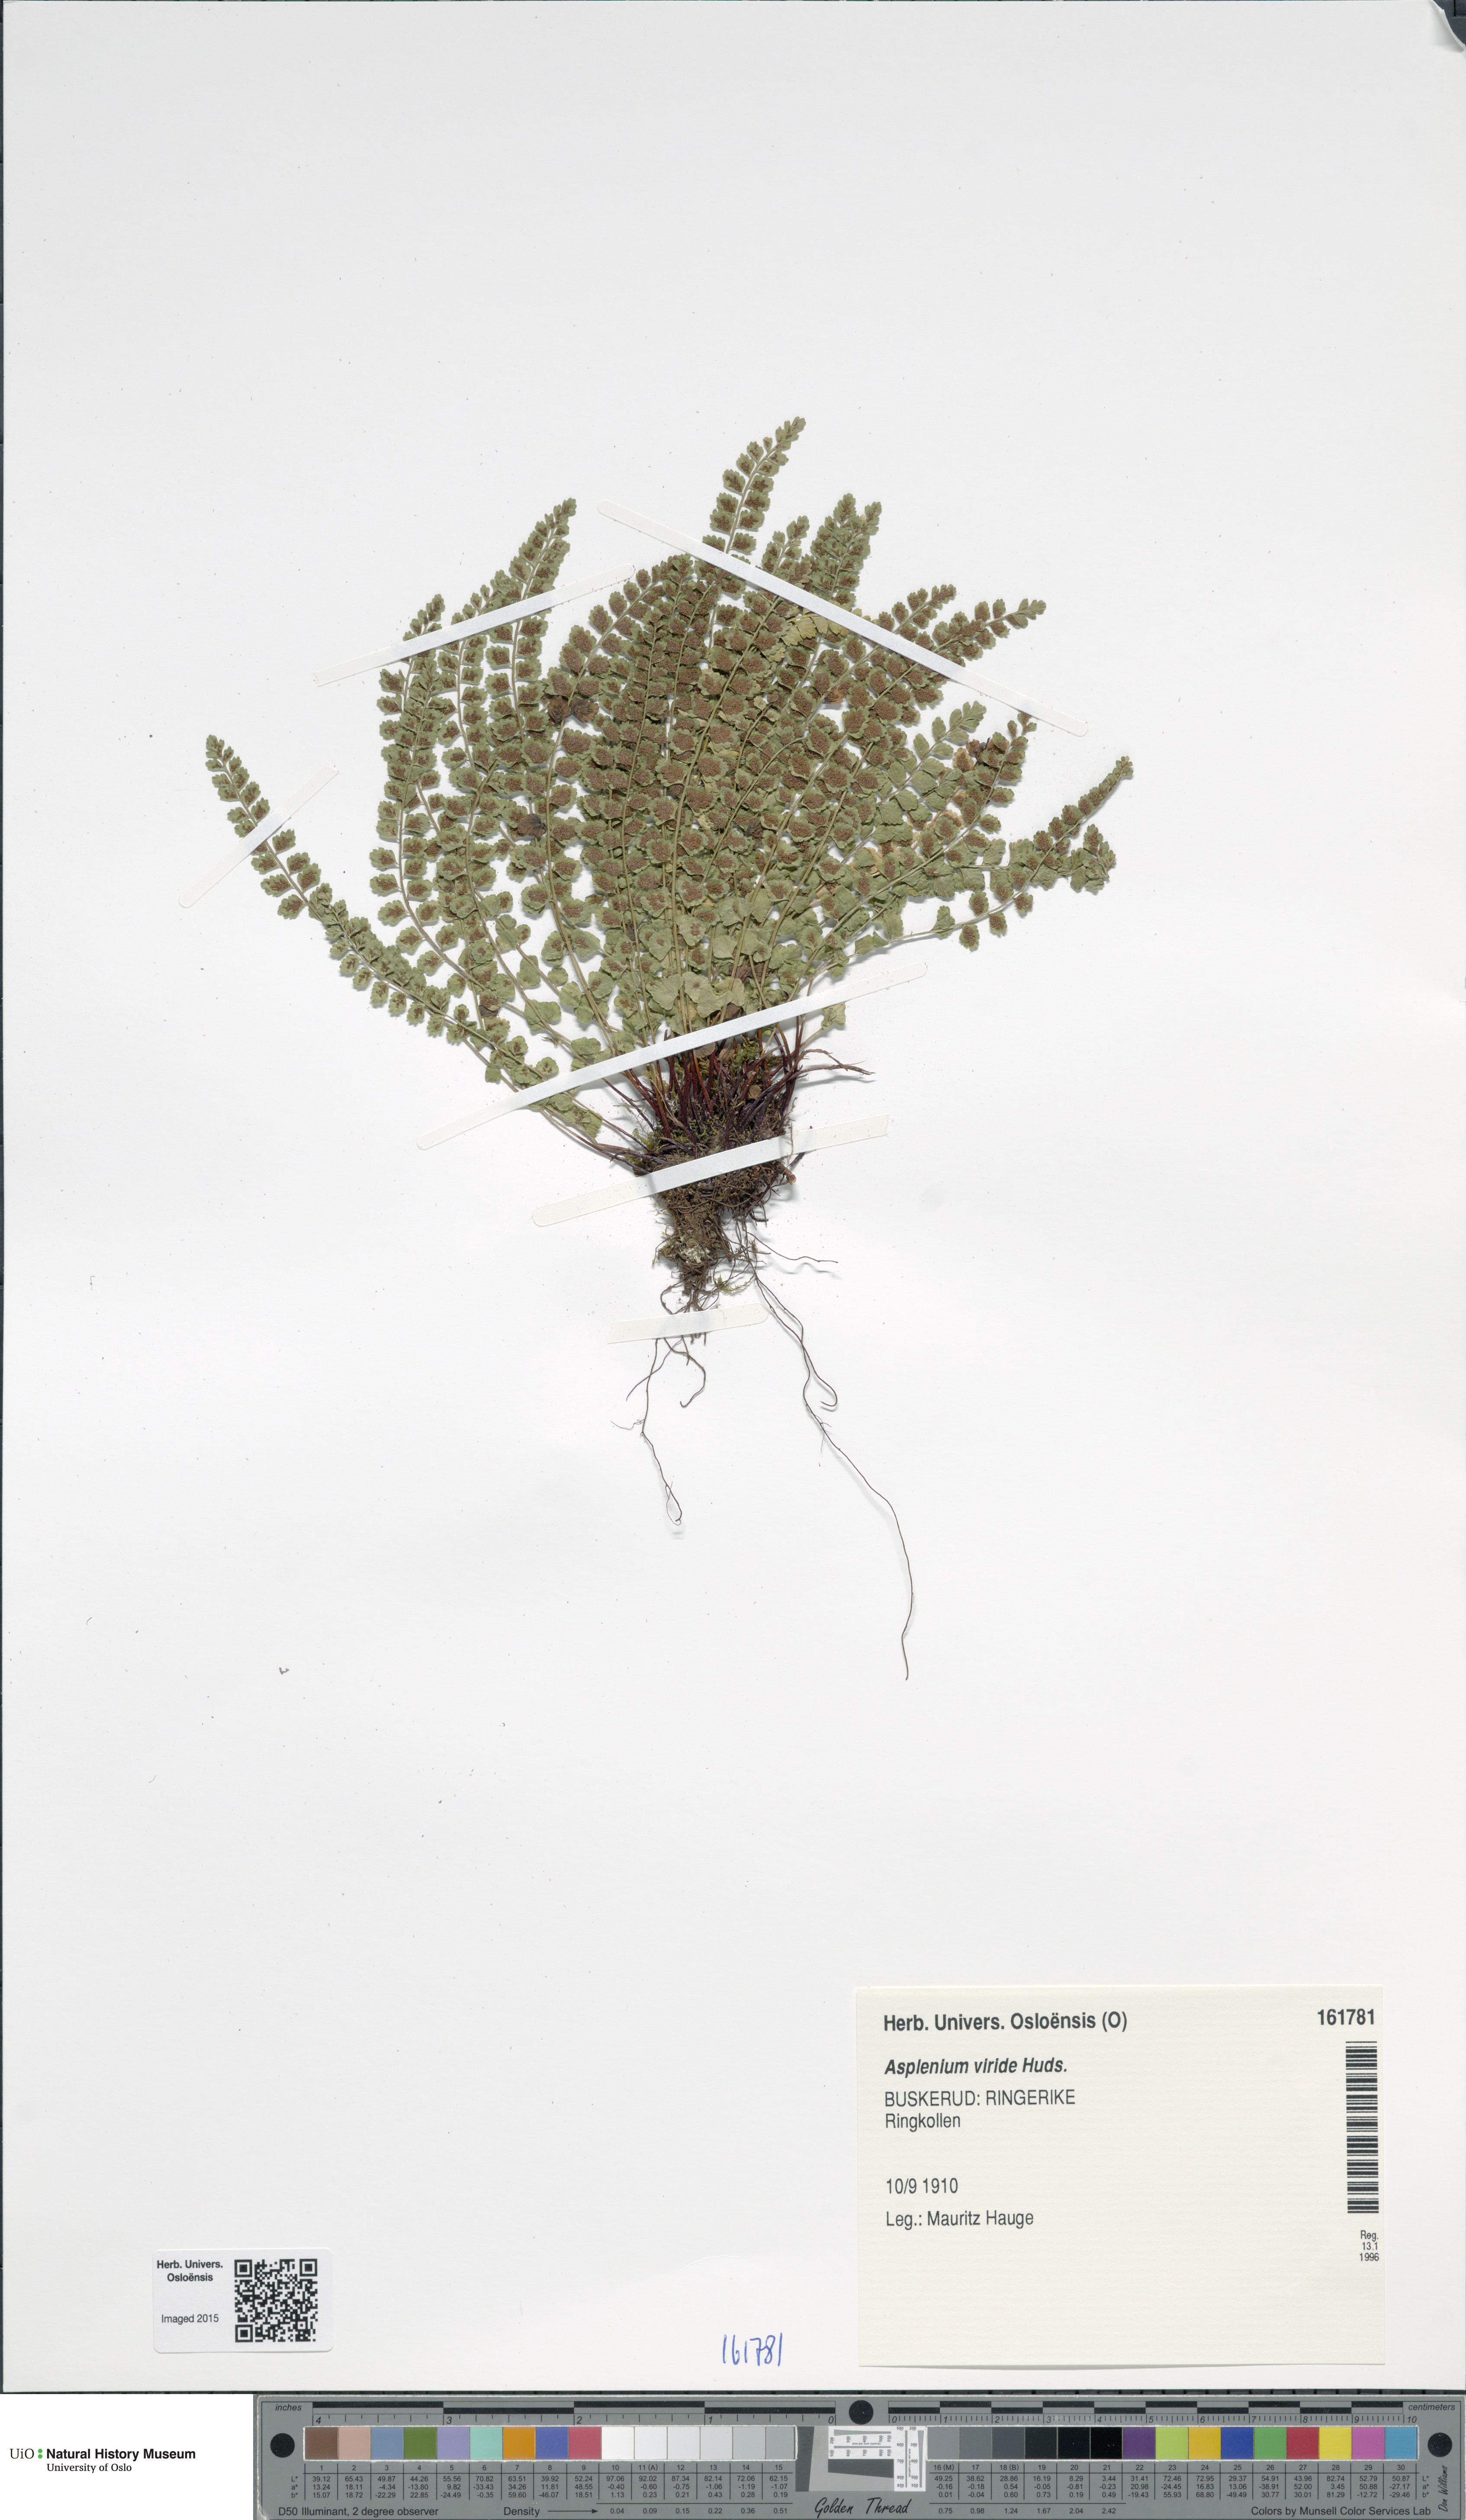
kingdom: Plantae
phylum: Tracheophyta
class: Polypodiopsida
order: Polypodiales
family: Aspleniaceae
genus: Asplenium
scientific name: Asplenium viride
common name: Green spleenwort
